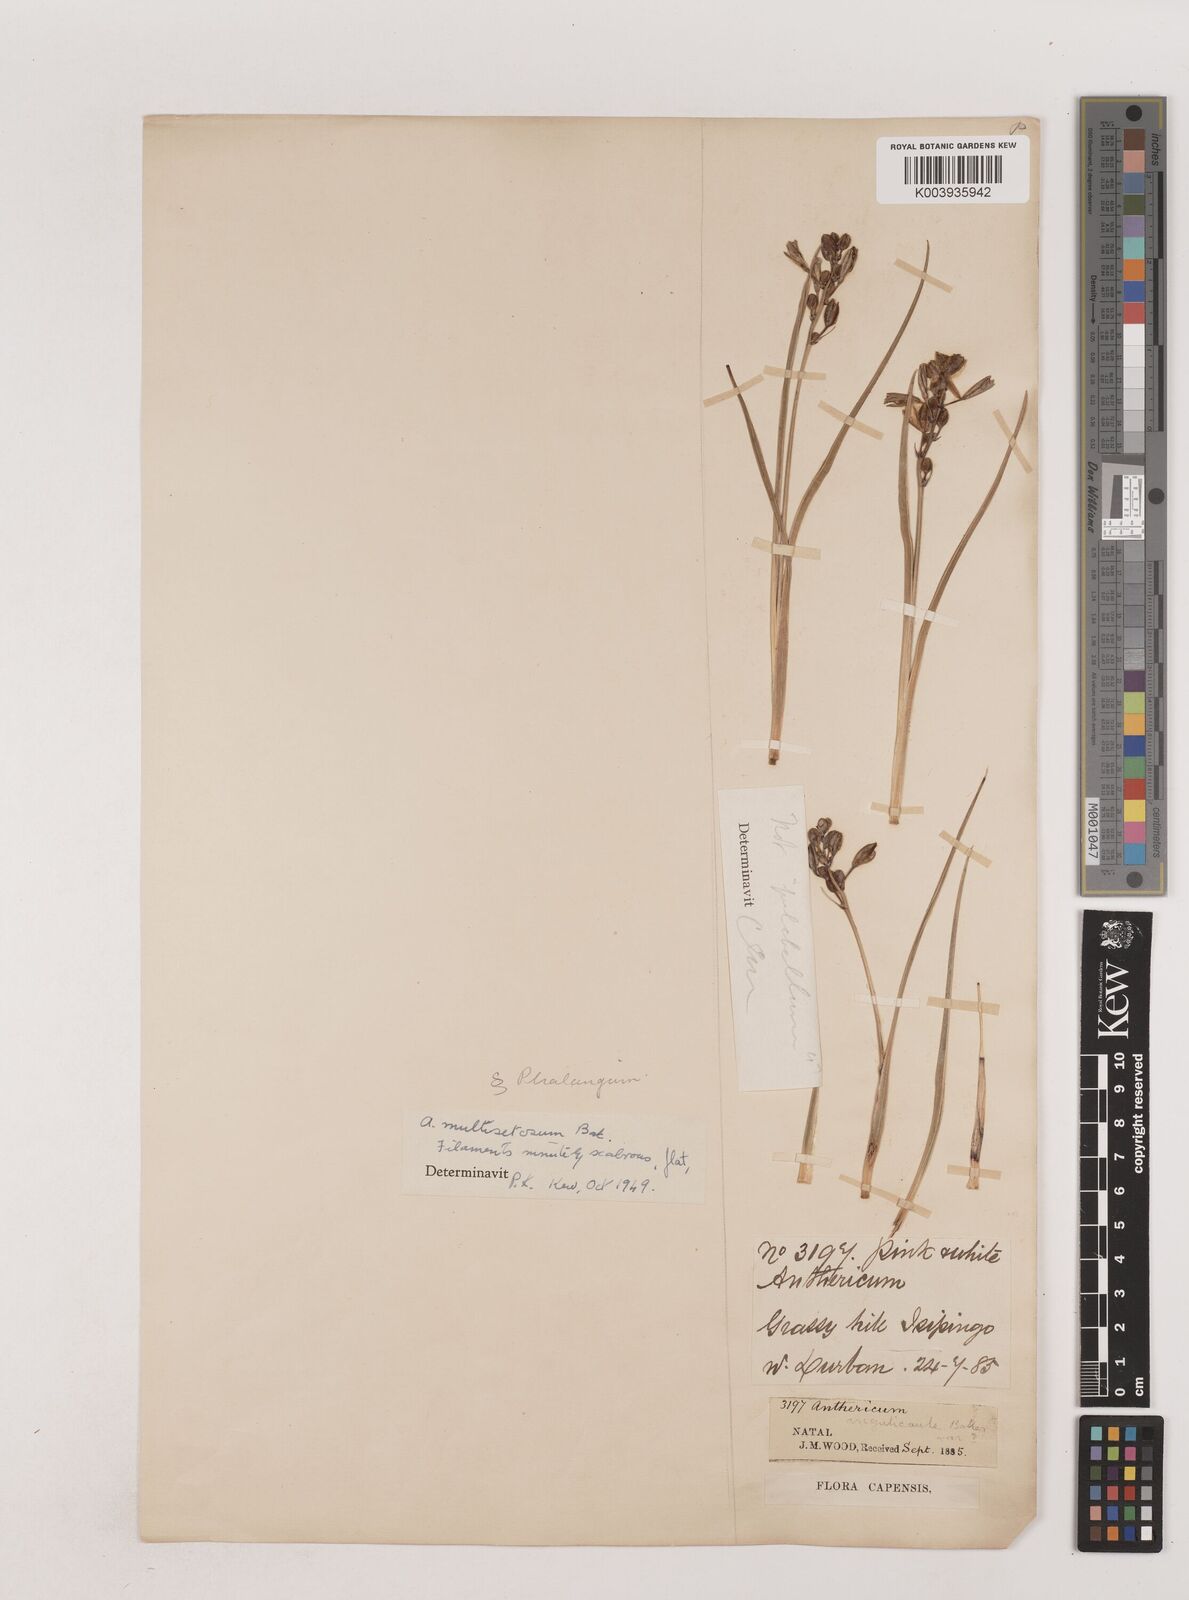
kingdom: Plantae
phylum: Tracheophyta
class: Liliopsida
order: Asparagales
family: Asparagaceae
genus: Chlorophytum
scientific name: Chlorophytum angulicaule
